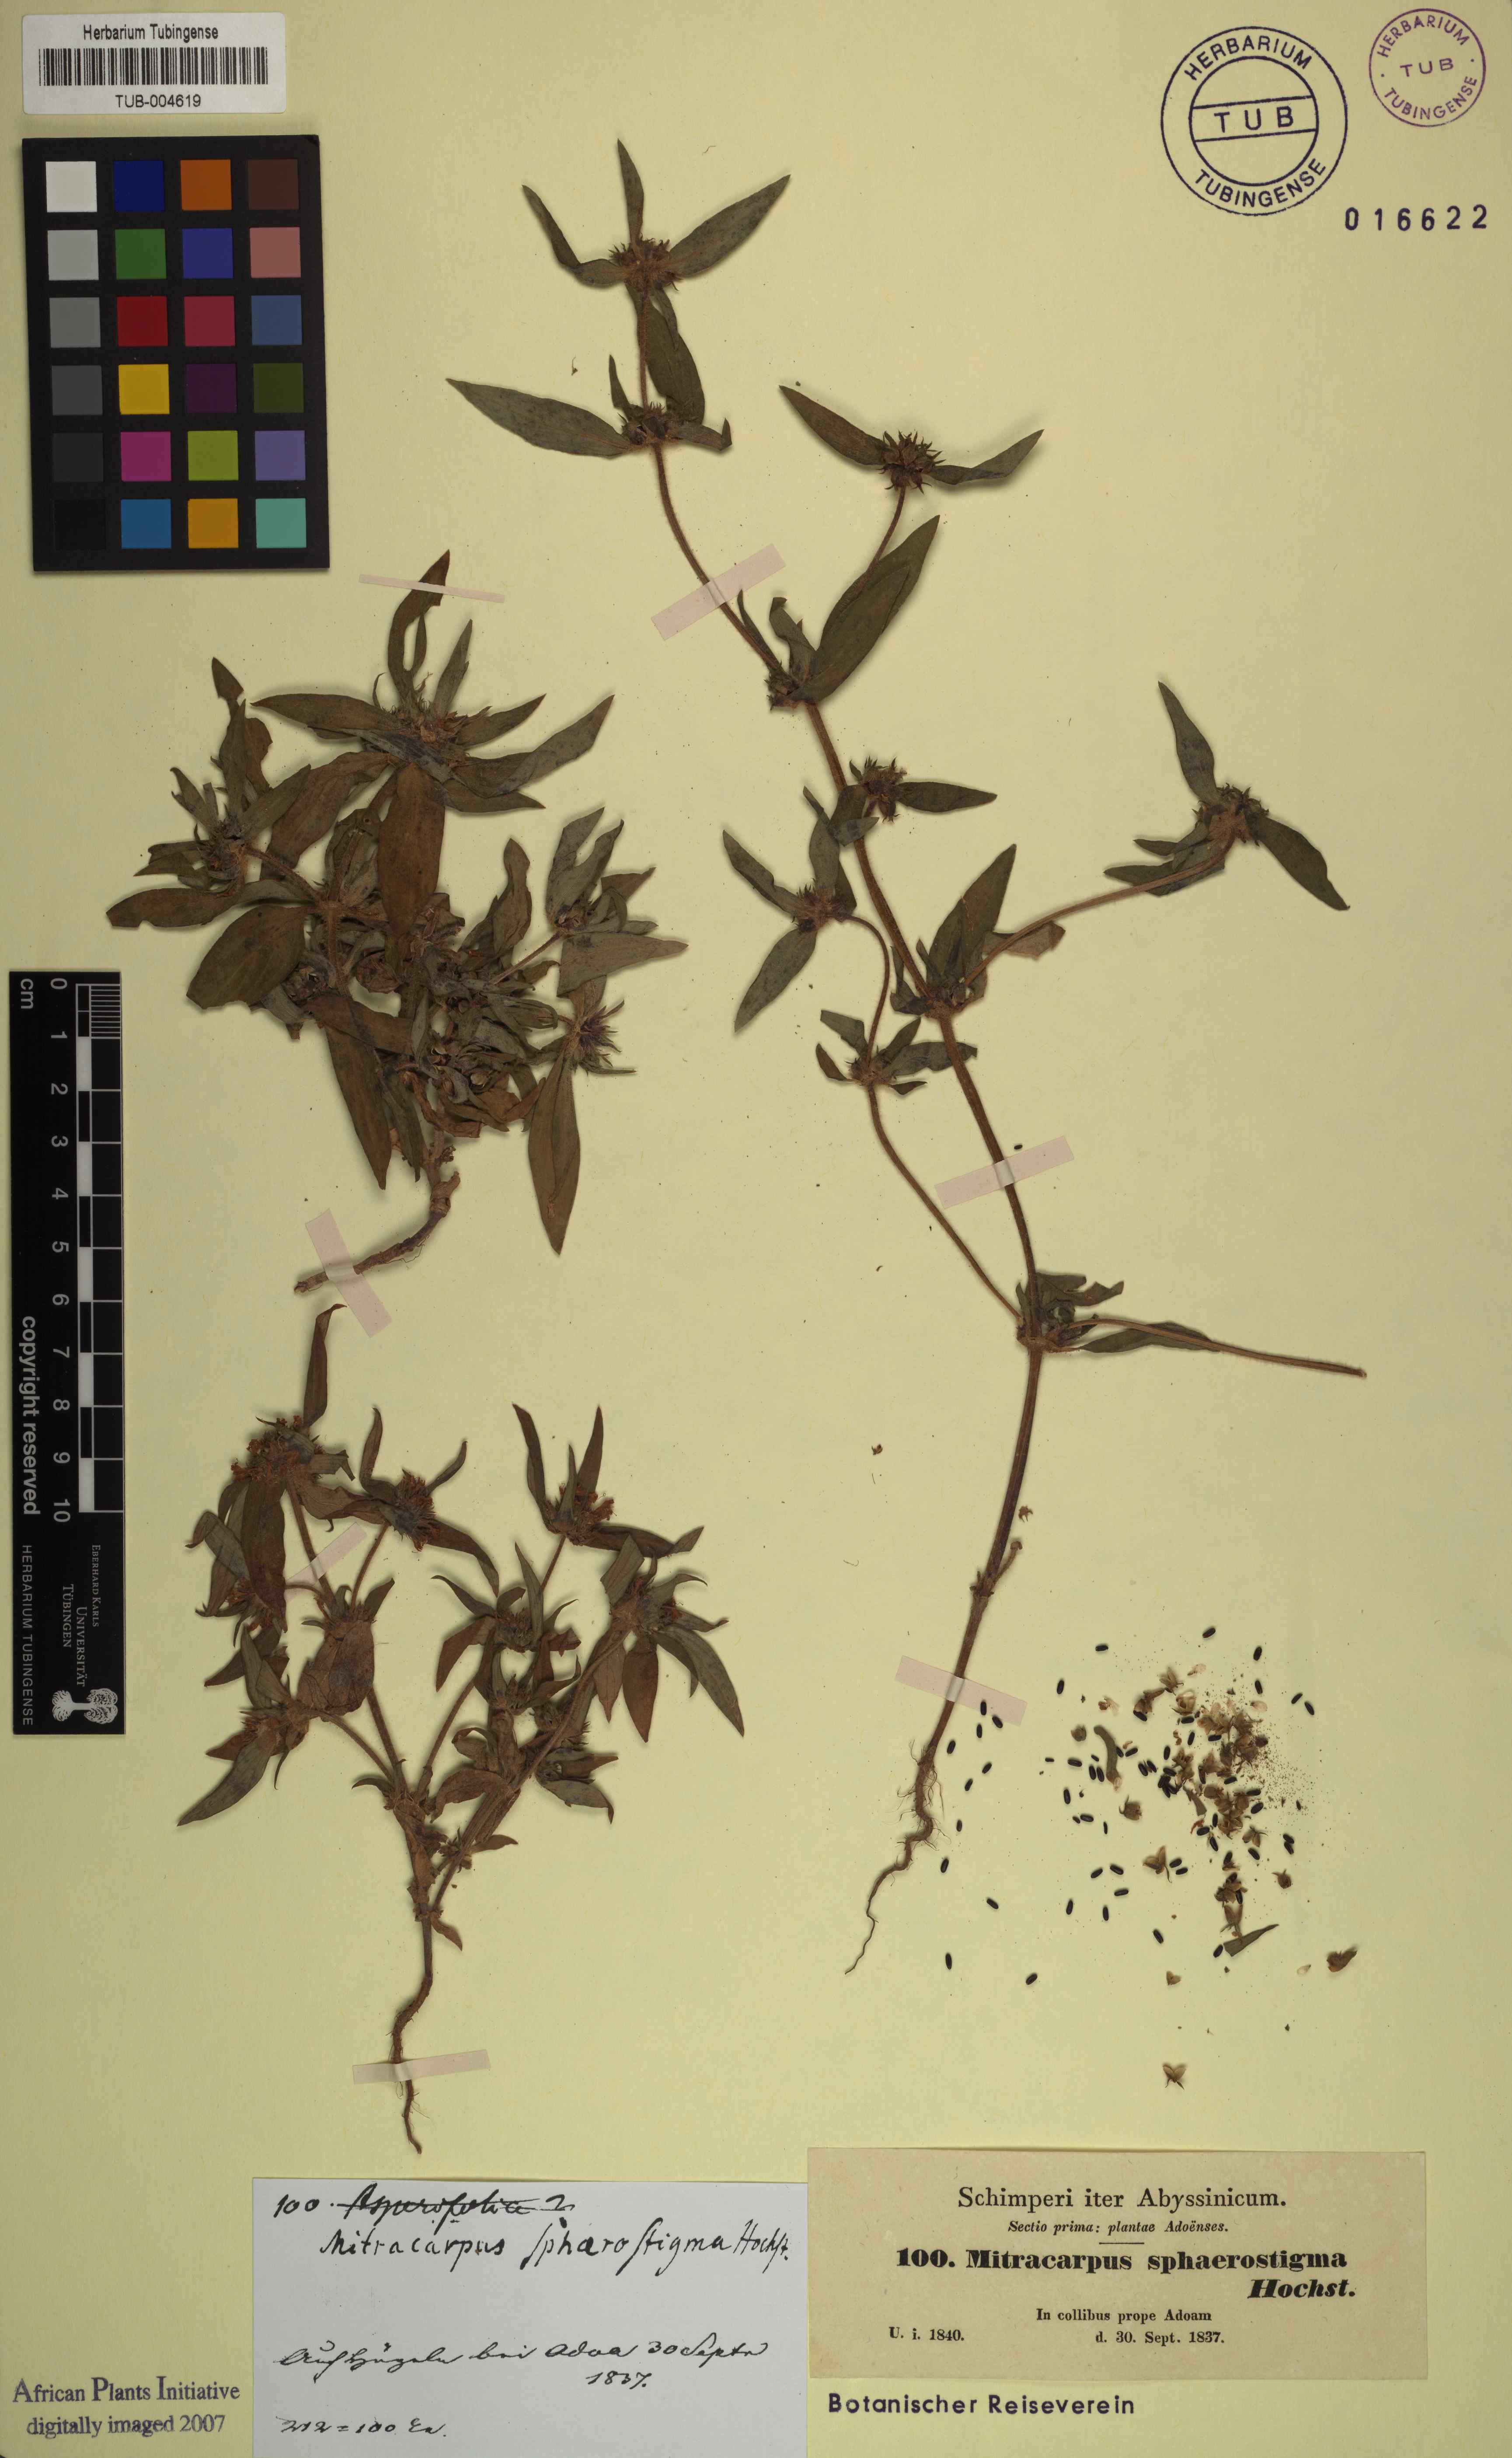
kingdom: Plantae
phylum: Tracheophyta
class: Magnoliopsida
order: Gentianales
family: Rubiaceae
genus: Spermacoce
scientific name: Spermacoce sphaerostigma
